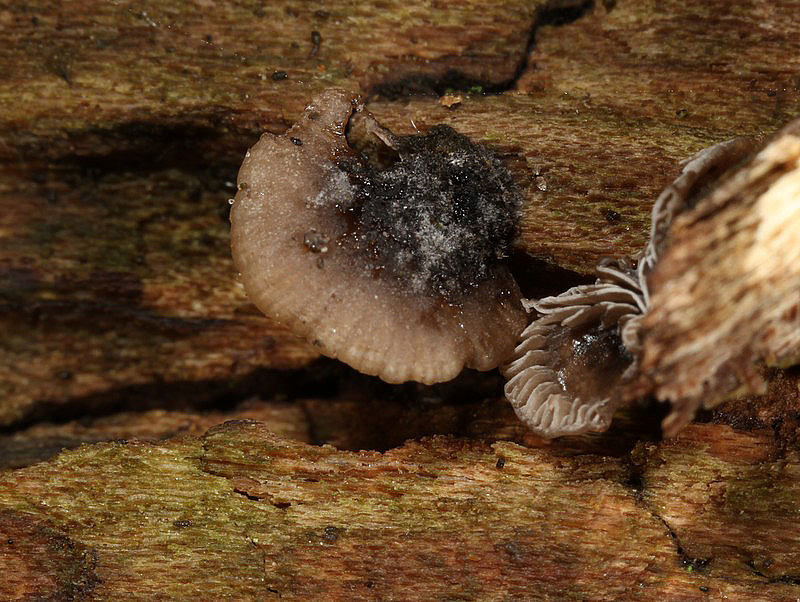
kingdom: Fungi
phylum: Basidiomycota
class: Agaricomycetes
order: Agaricales
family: Pleurotaceae
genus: Resupinatus
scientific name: Resupinatus trichotis
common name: mørkfiltet barkhat
